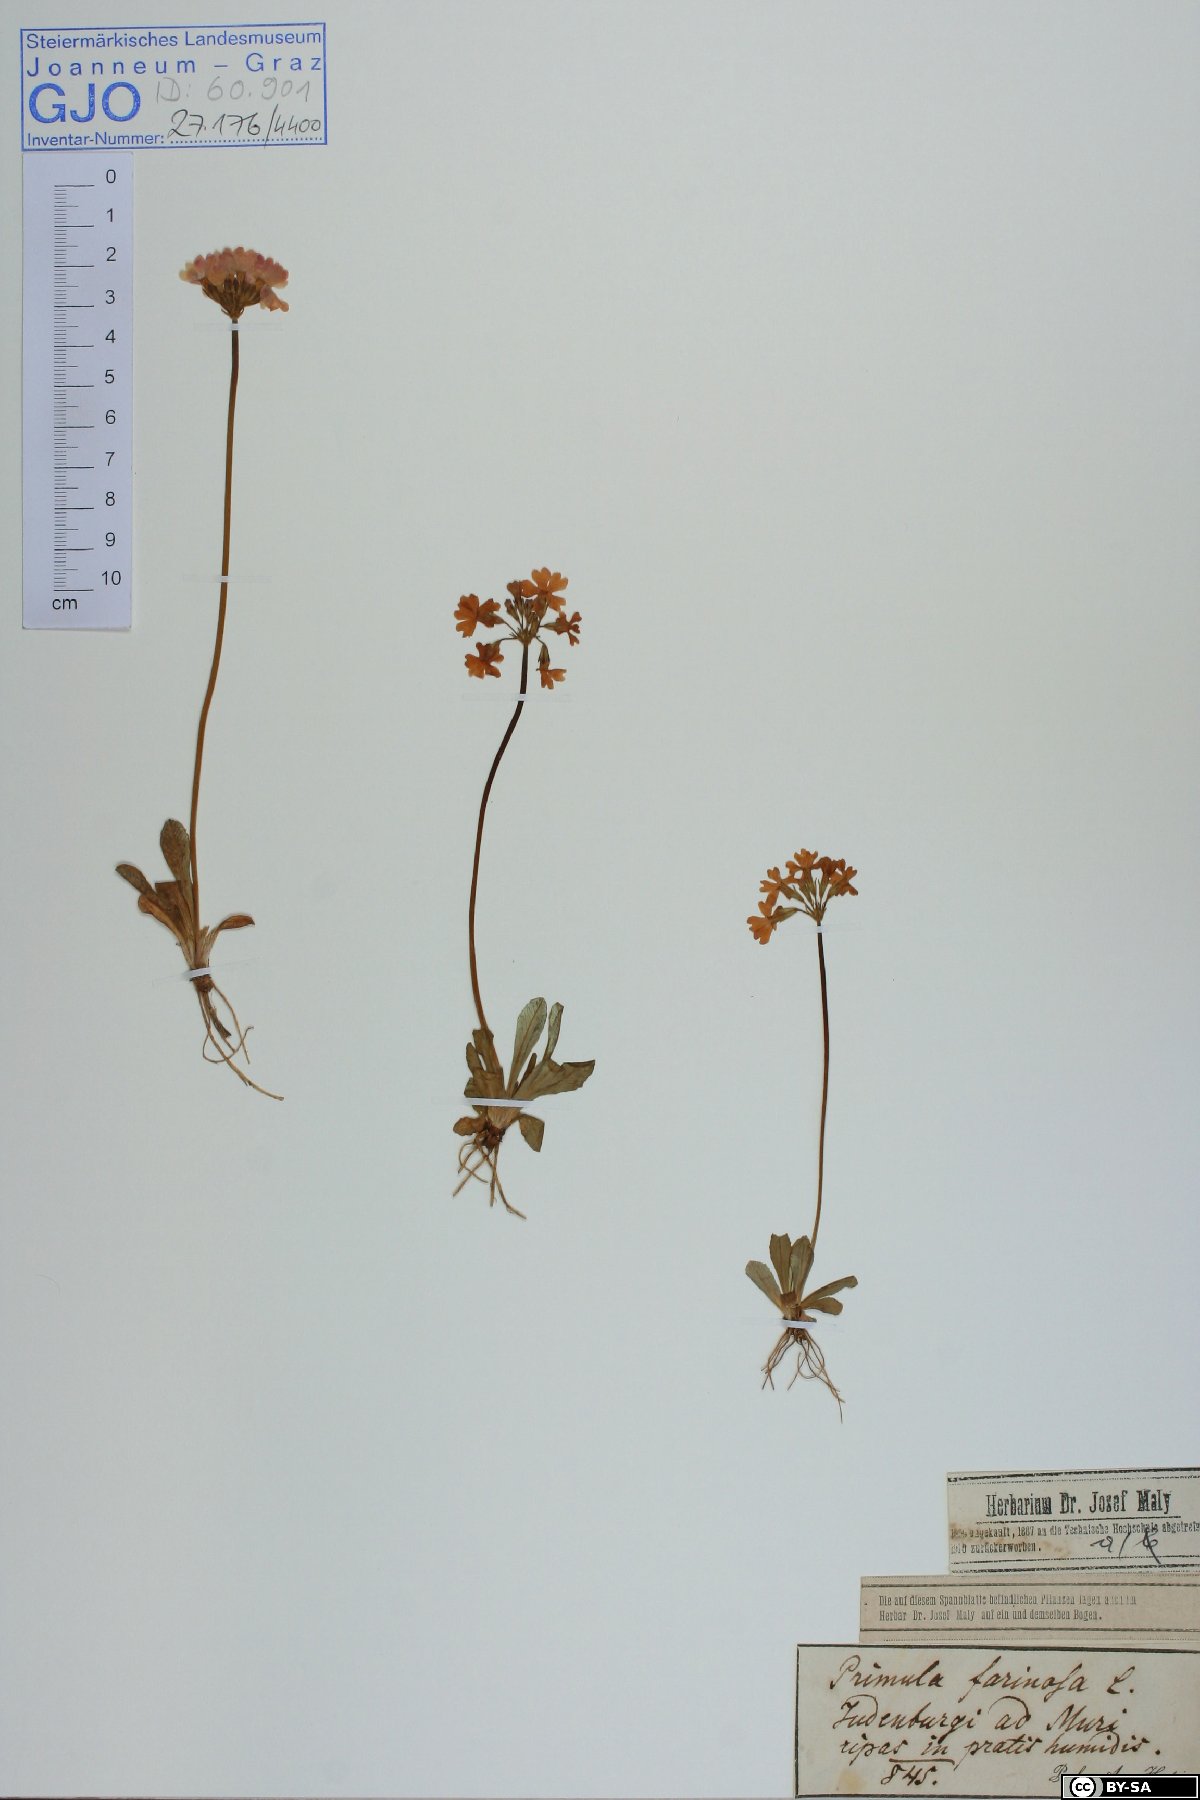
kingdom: Plantae
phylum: Tracheophyta
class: Magnoliopsida
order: Ericales
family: Primulaceae
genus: Primula
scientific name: Primula farinosa
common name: Bird's-eye primrose
